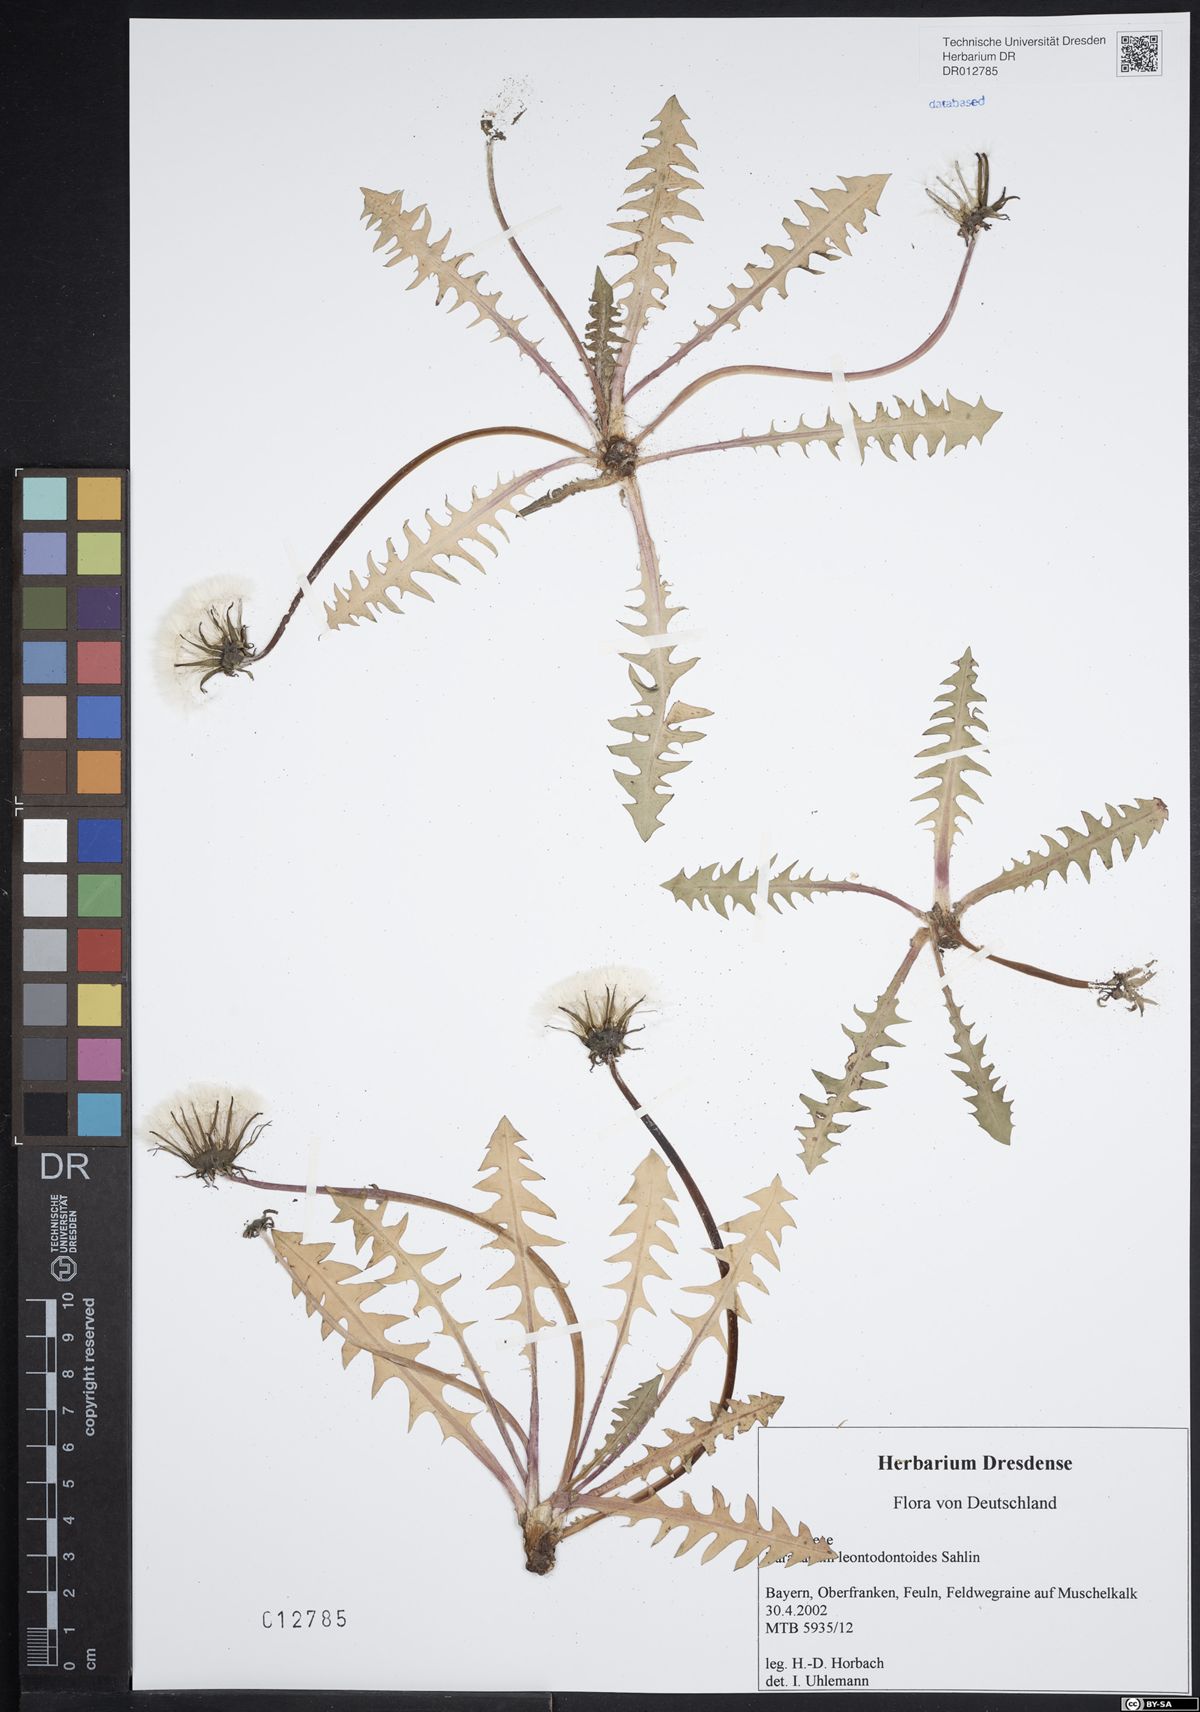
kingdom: Plantae
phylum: Tracheophyta
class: Magnoliopsida
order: Asterales
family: Asteraceae
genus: Taraxacum
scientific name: Taraxacum gentile
